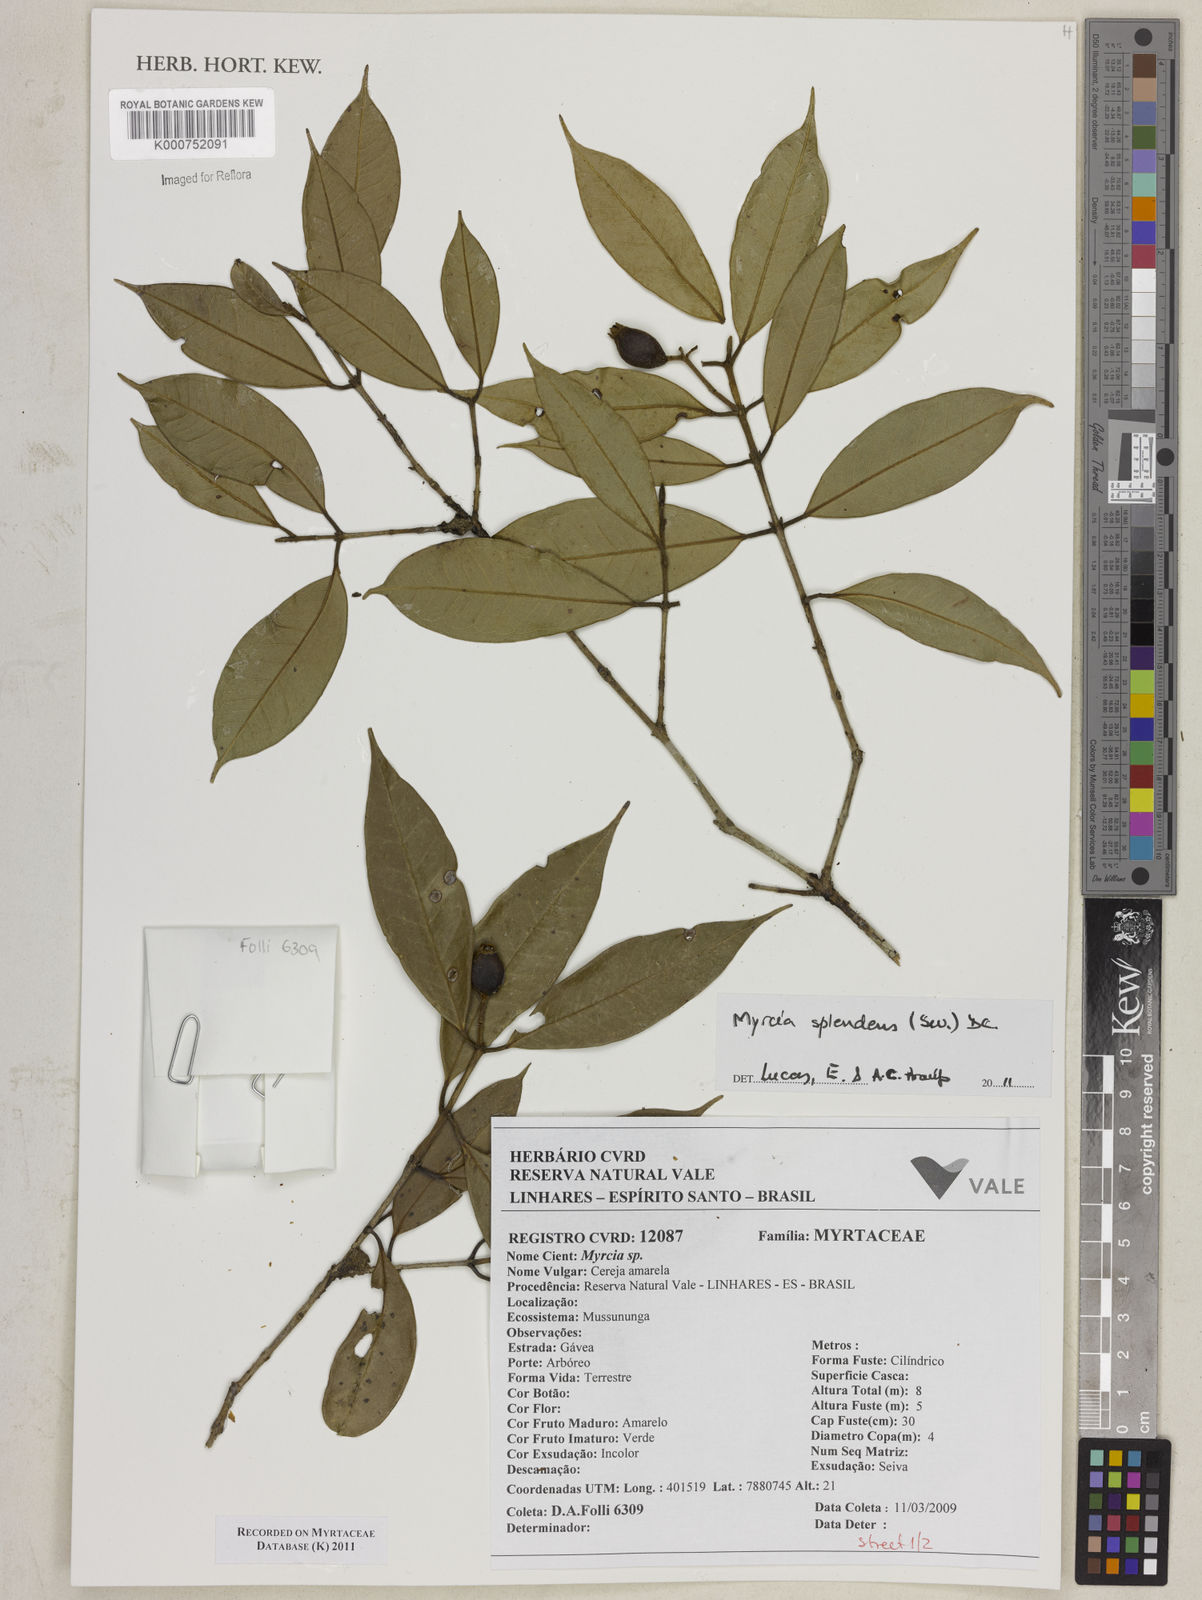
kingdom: Plantae
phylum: Tracheophyta
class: Magnoliopsida
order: Myrtales
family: Myrtaceae
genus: Myrcia
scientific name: Myrcia splendens
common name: Surinam cherry
